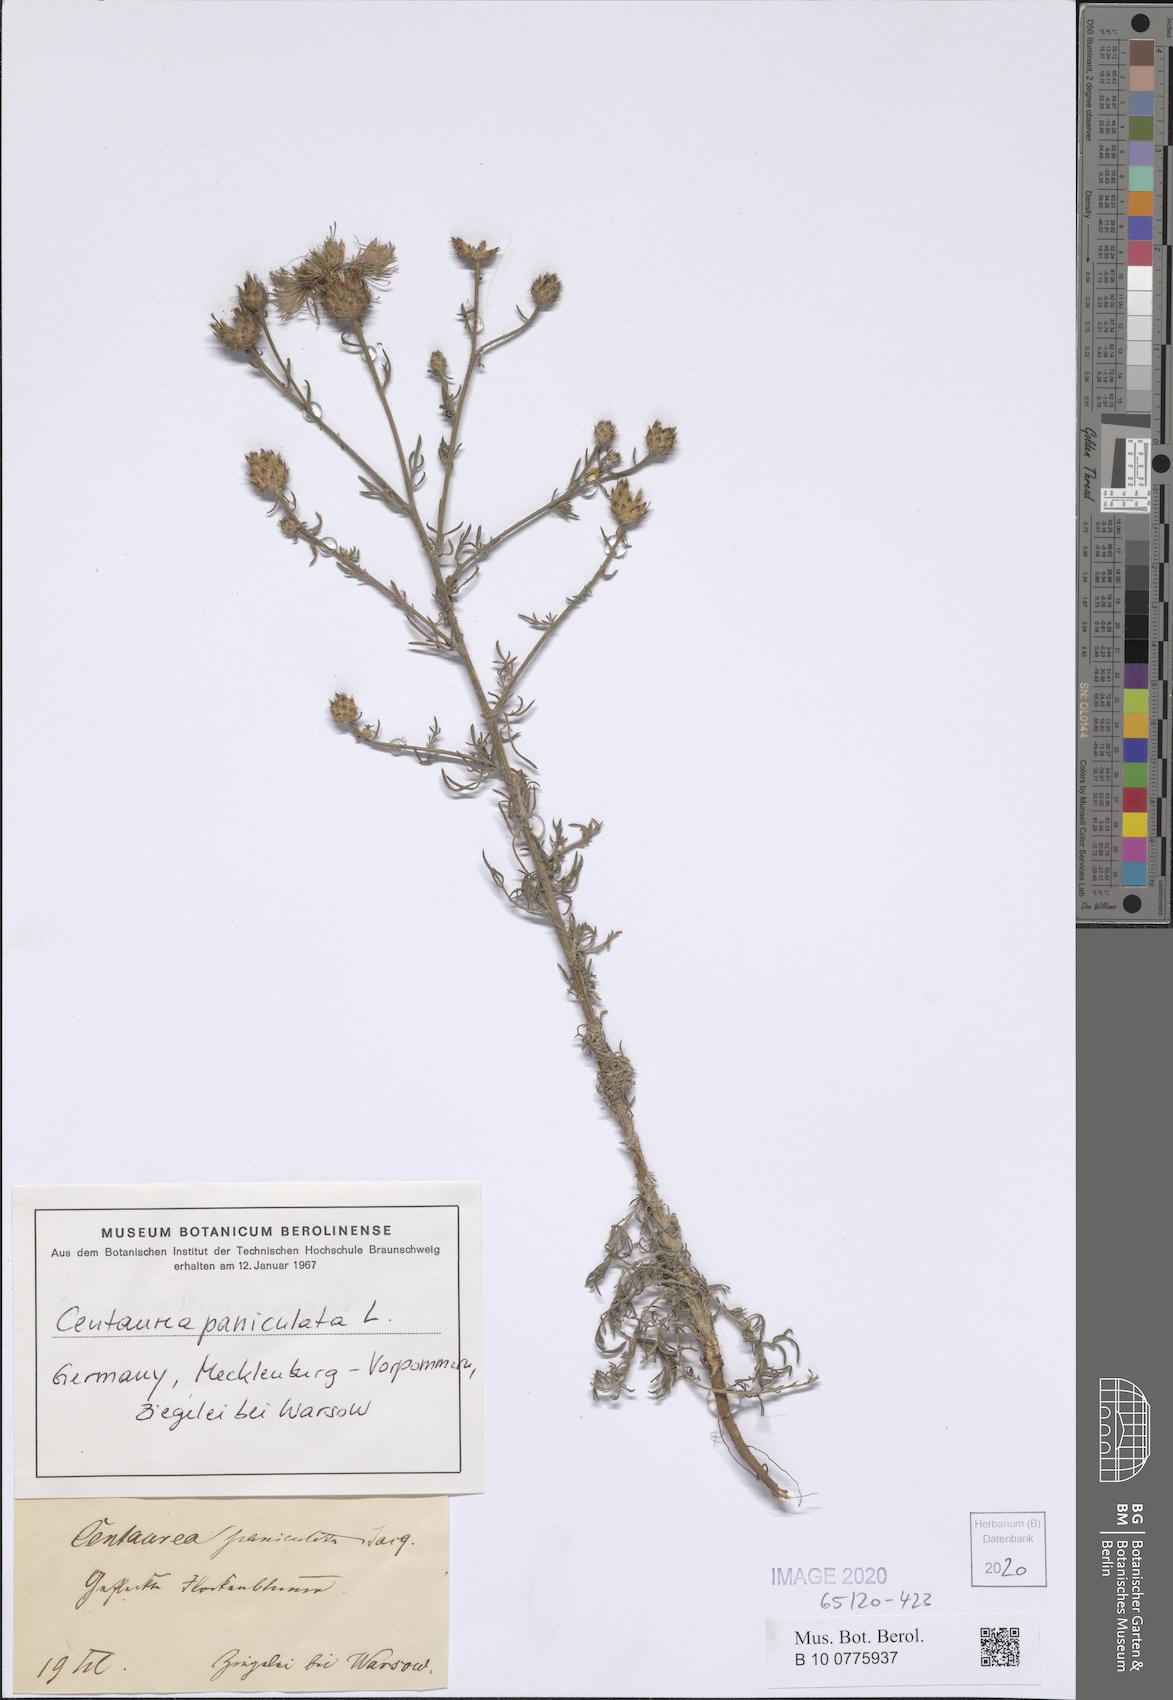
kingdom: Plantae
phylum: Tracheophyta
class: Magnoliopsida
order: Asterales
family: Asteraceae
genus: Centaurea
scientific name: Centaurea paniculata
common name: Jersey knapweed
